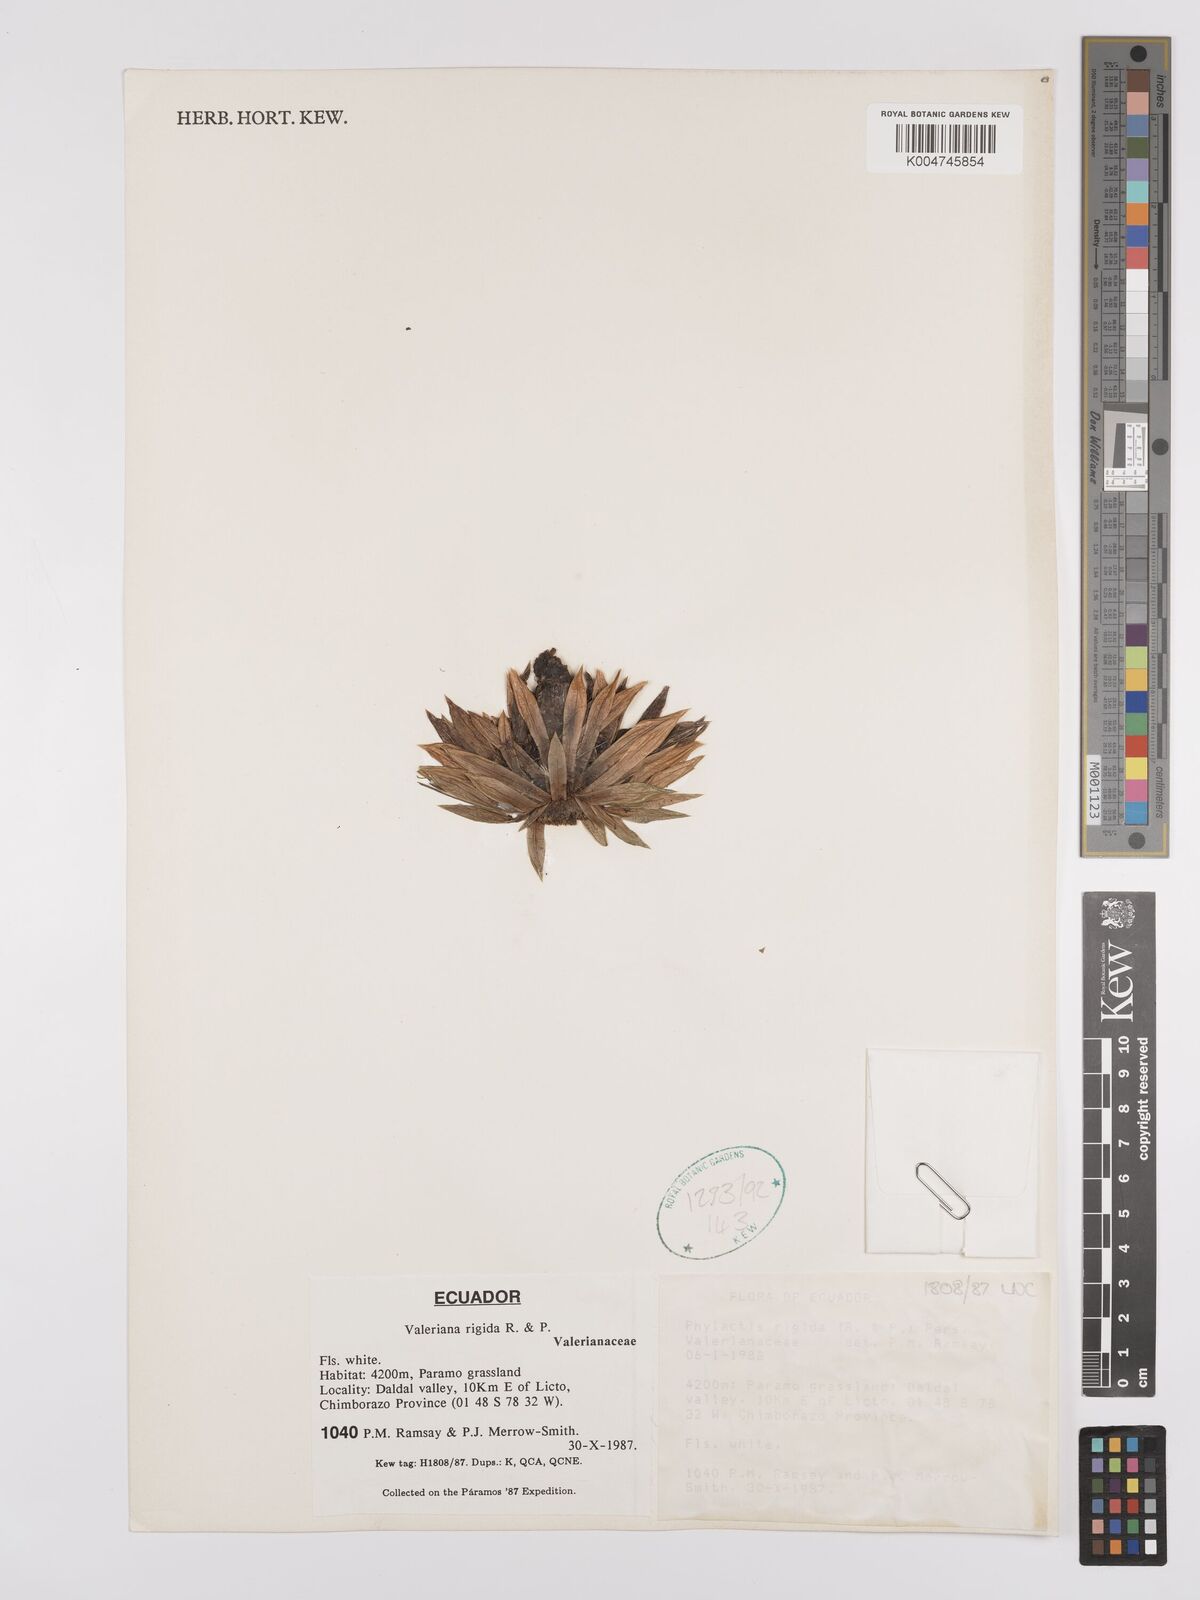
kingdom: Plantae
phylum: Tracheophyta
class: Magnoliopsida
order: Dipsacales
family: Caprifoliaceae
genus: Valeriana
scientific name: Valeriana rigida
